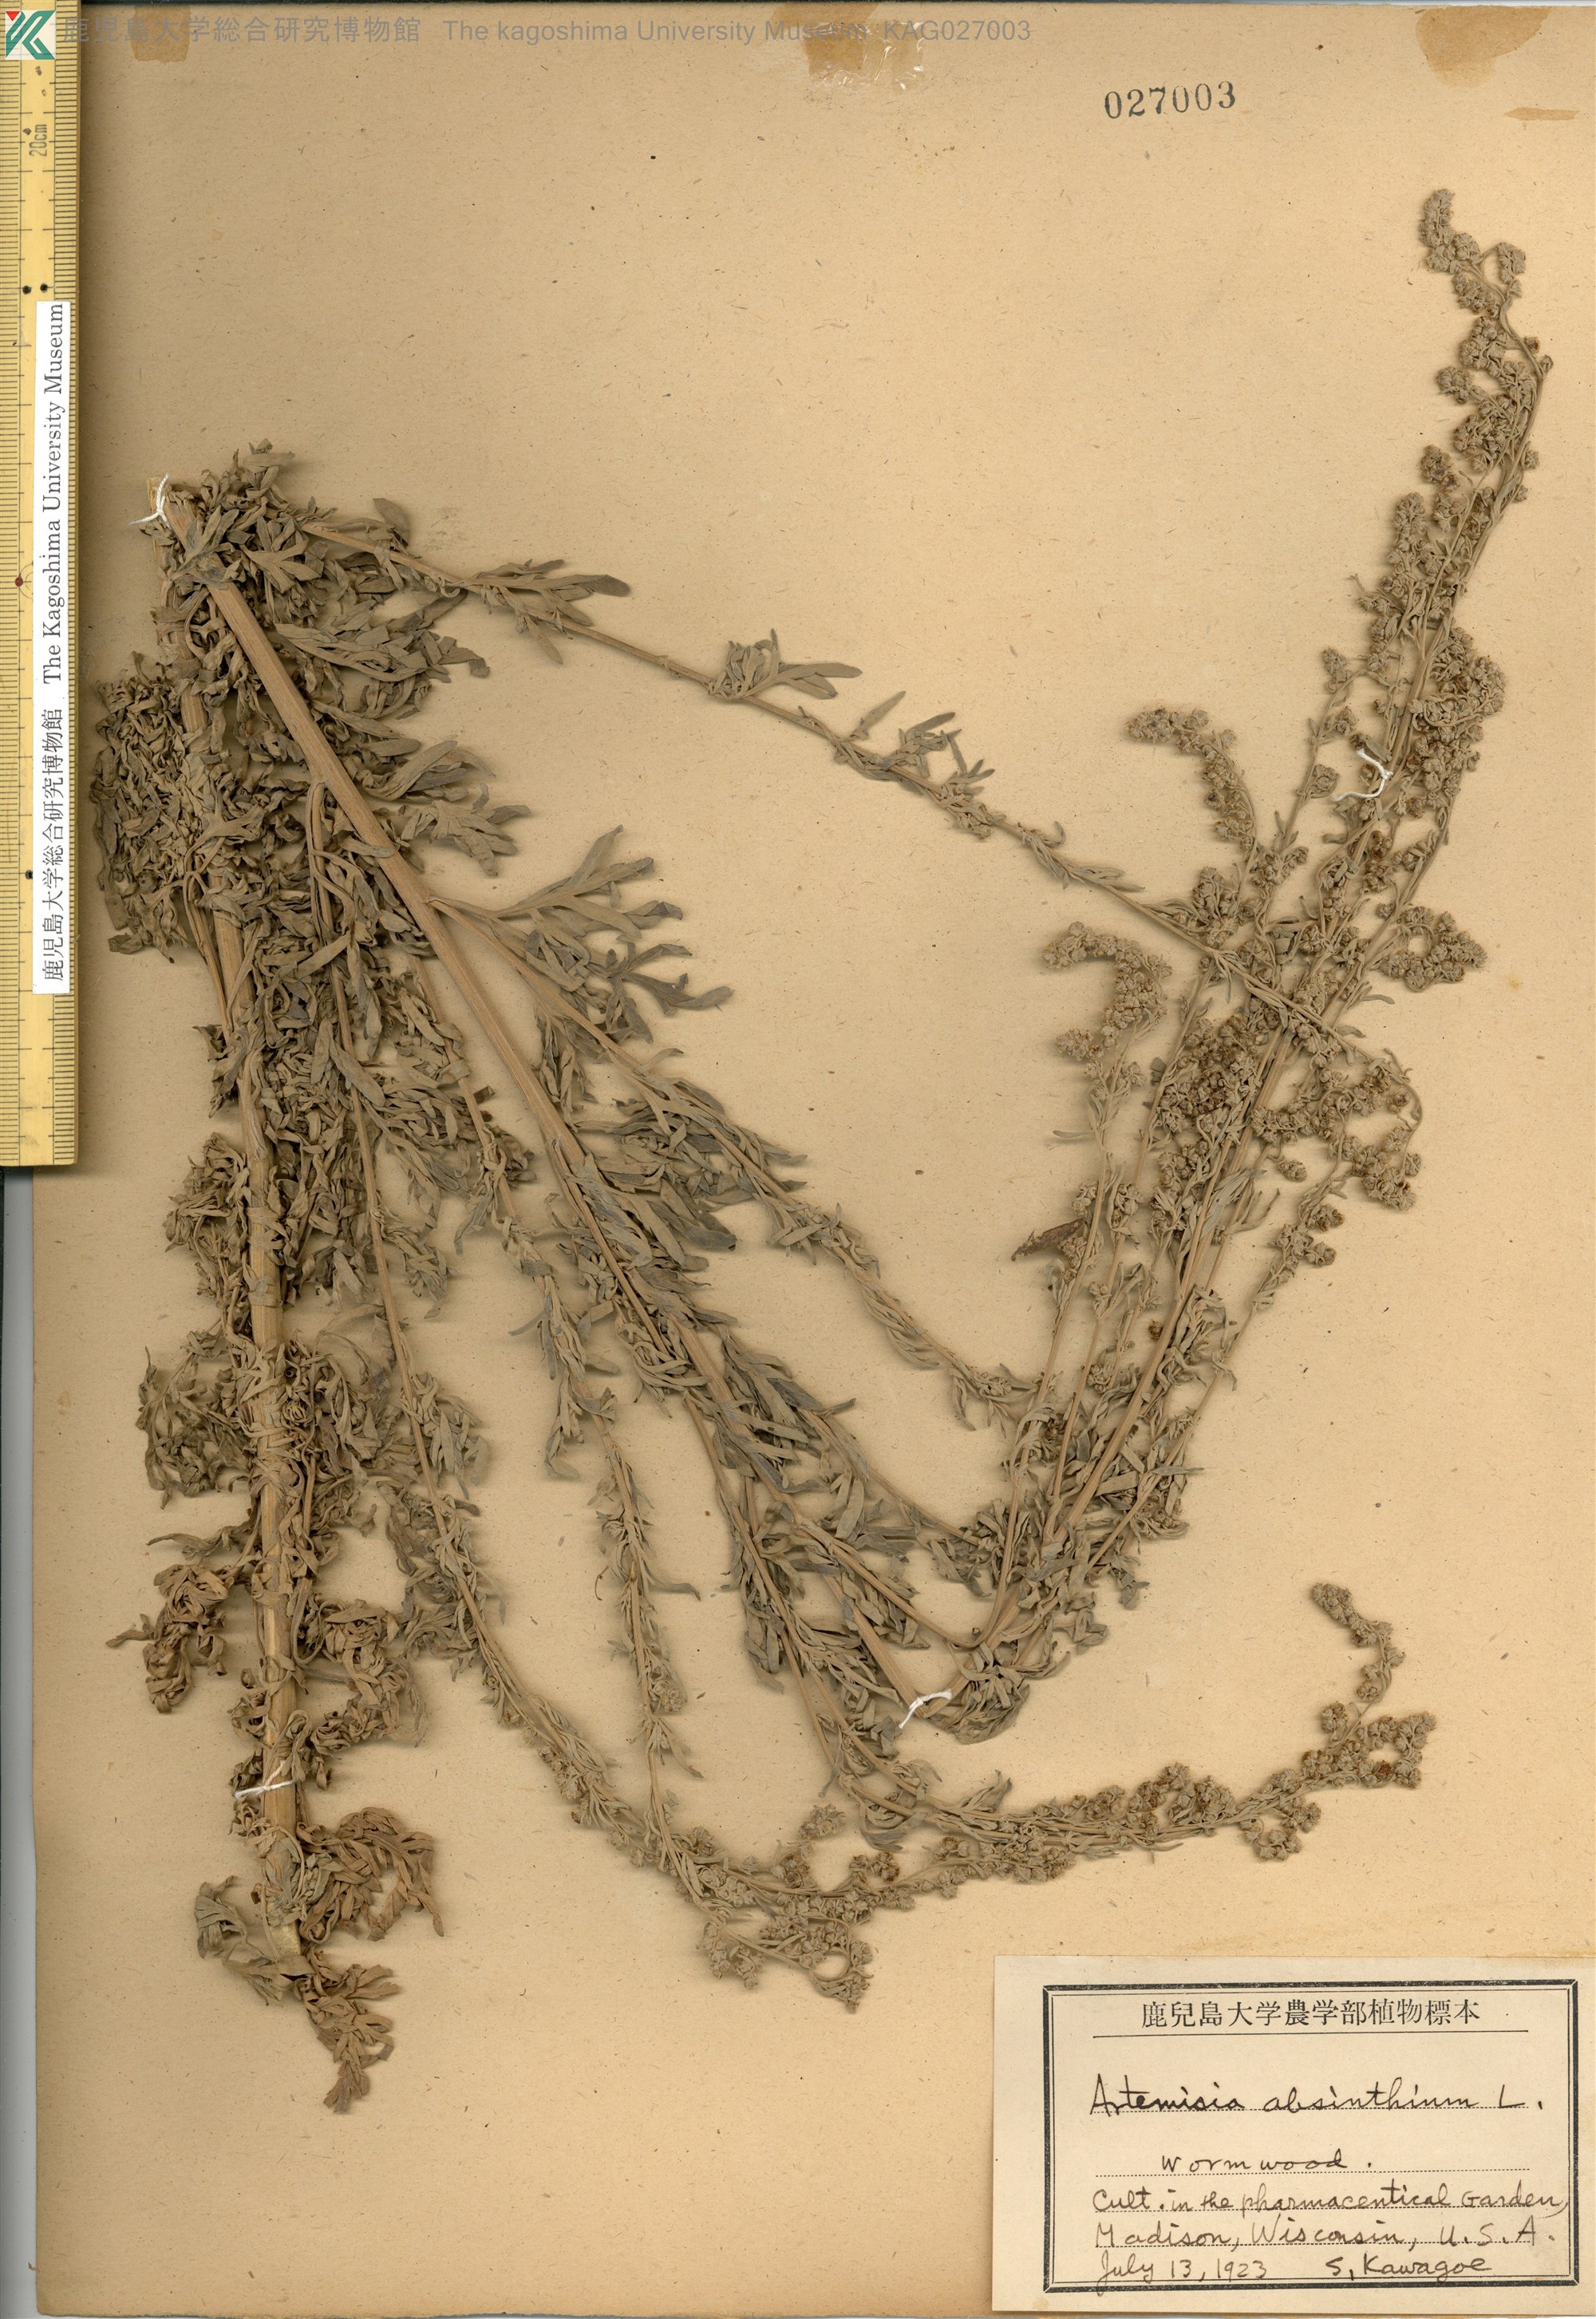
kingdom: Plantae
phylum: Tracheophyta
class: Magnoliopsida
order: Asterales
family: Asteraceae
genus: Artemisia
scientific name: Artemisia absinthium
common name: Wormwood
